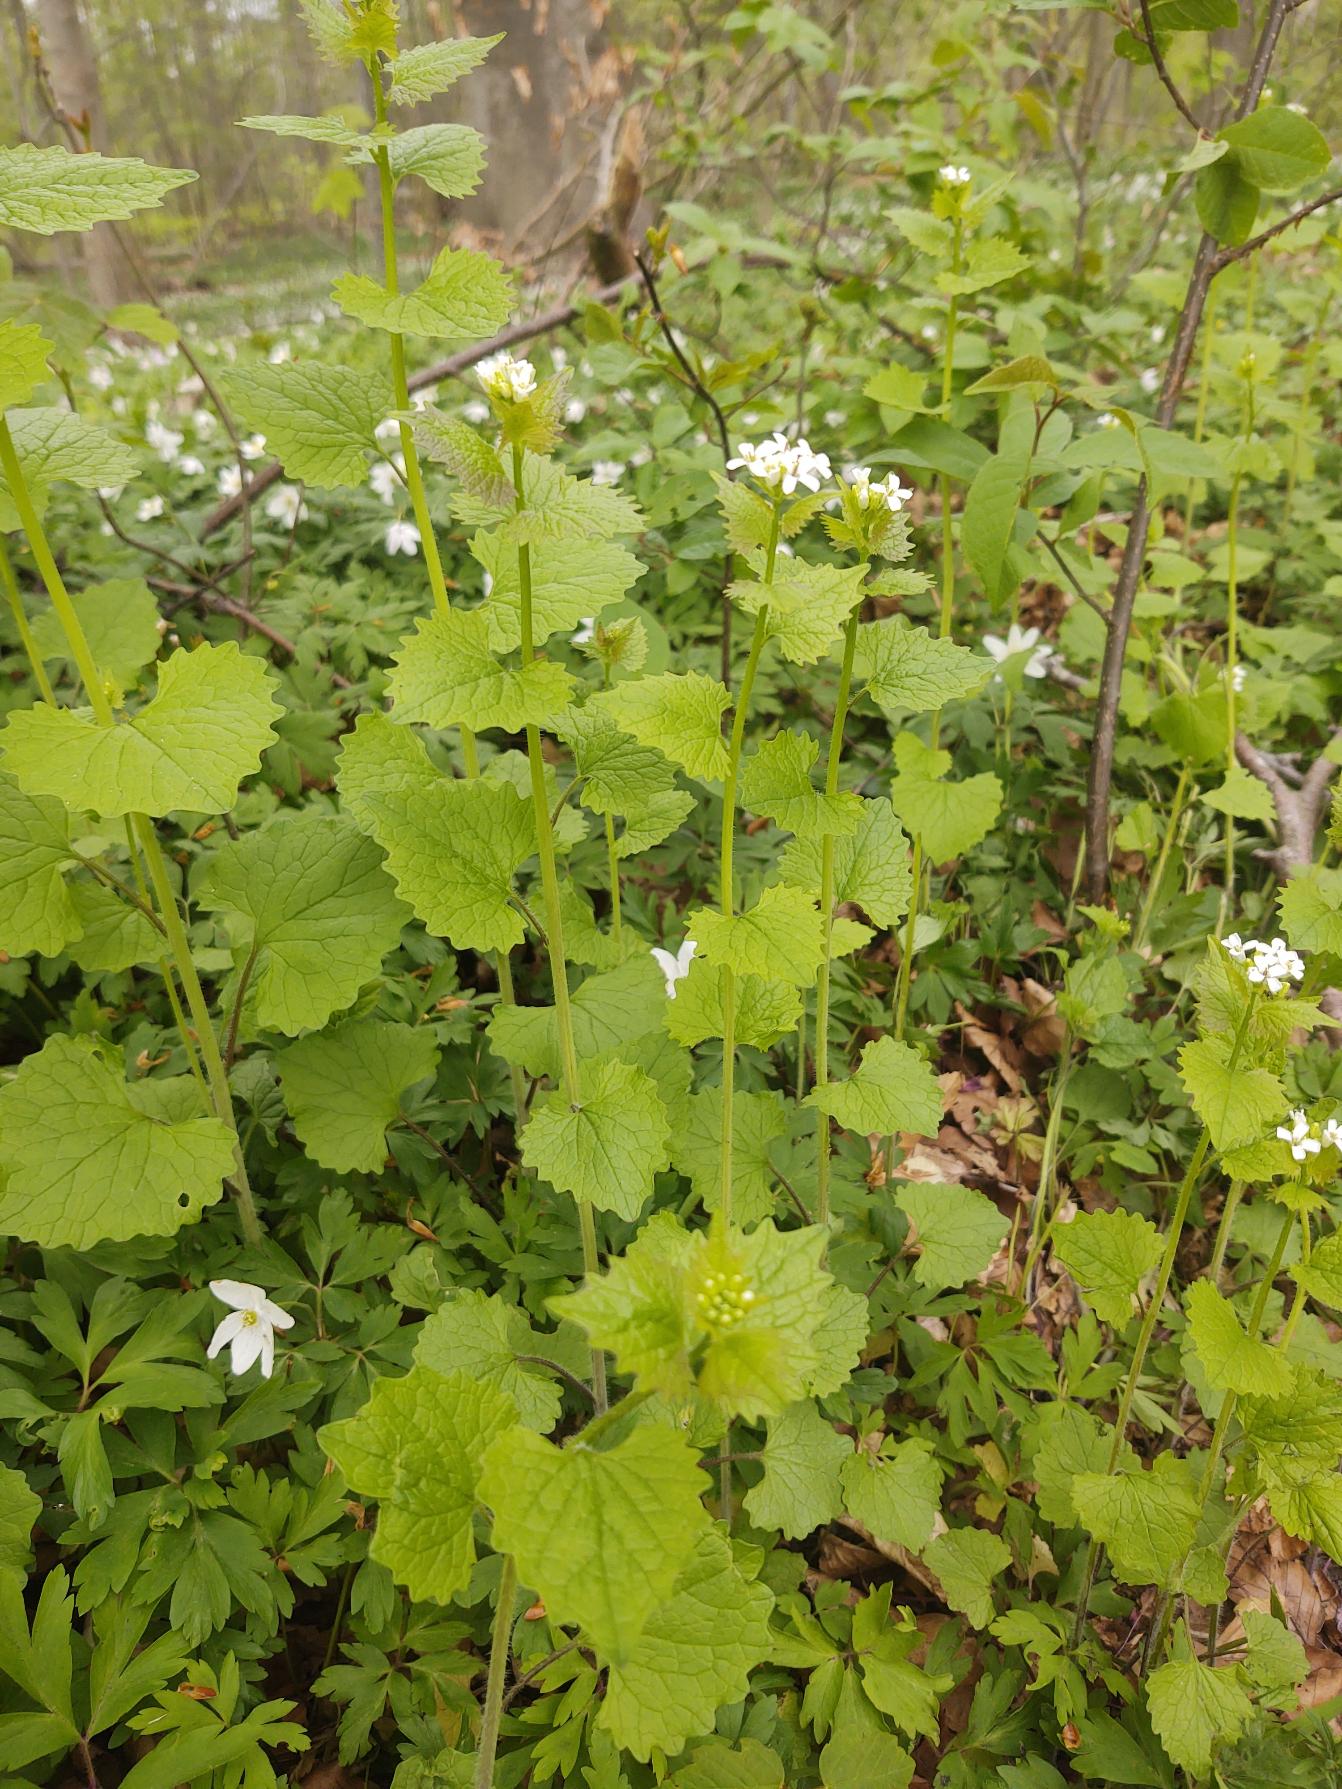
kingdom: Plantae
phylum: Tracheophyta
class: Magnoliopsida
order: Brassicales
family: Brassicaceae
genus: Alliaria
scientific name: Alliaria petiolata
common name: Løgkarse
